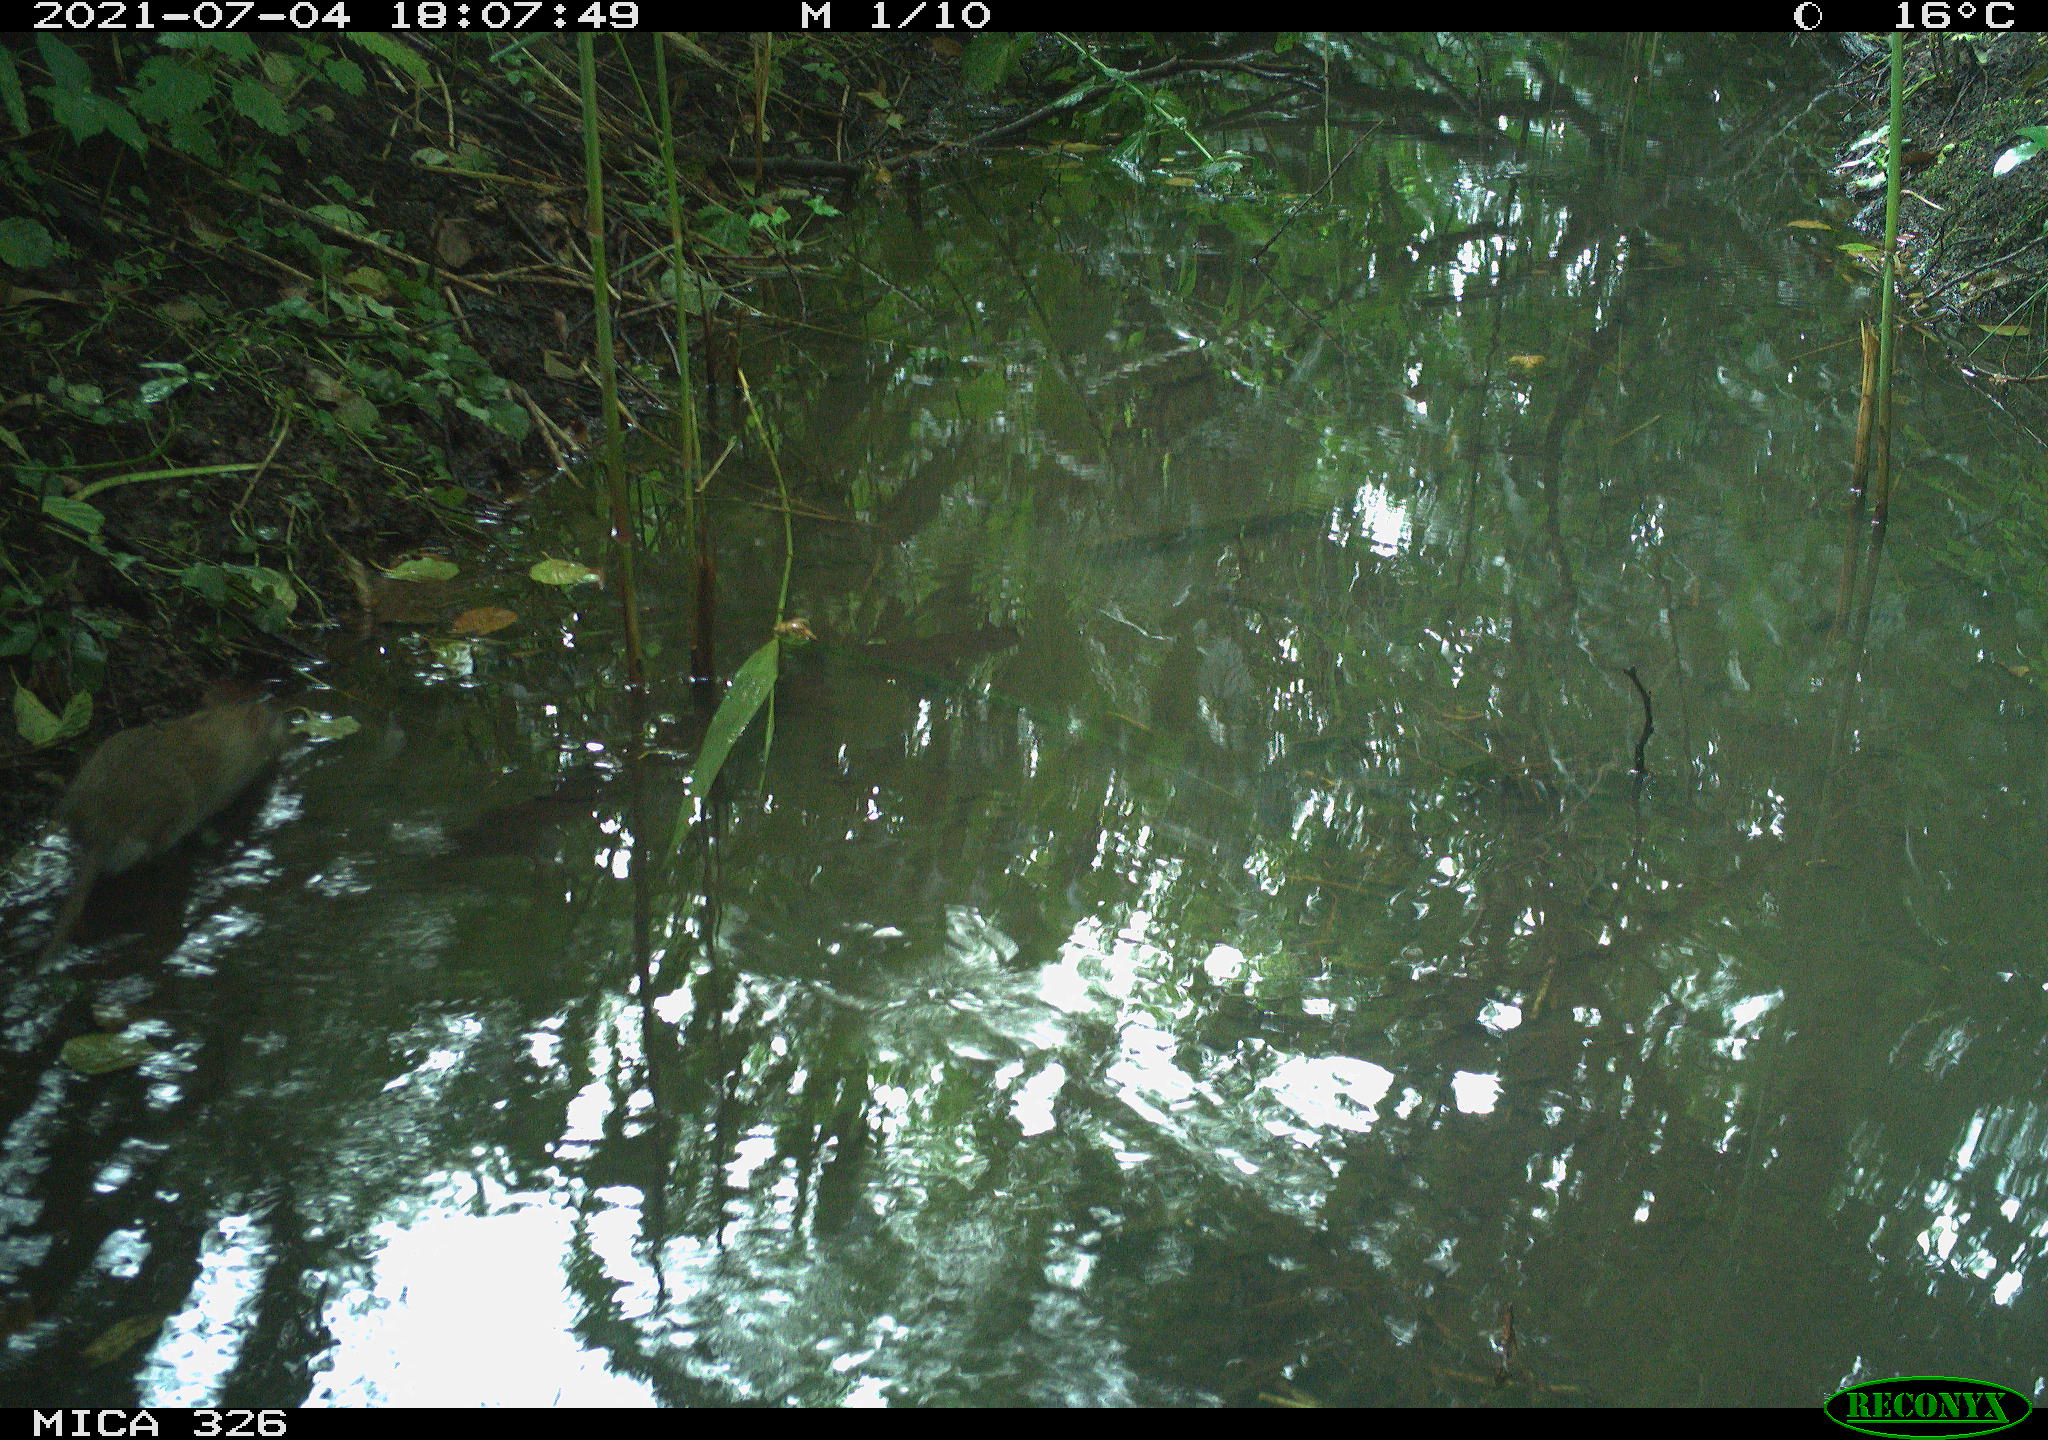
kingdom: Animalia
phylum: Chordata
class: Mammalia
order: Rodentia
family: Muridae
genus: Rattus
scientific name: Rattus norvegicus
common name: Brown rat
